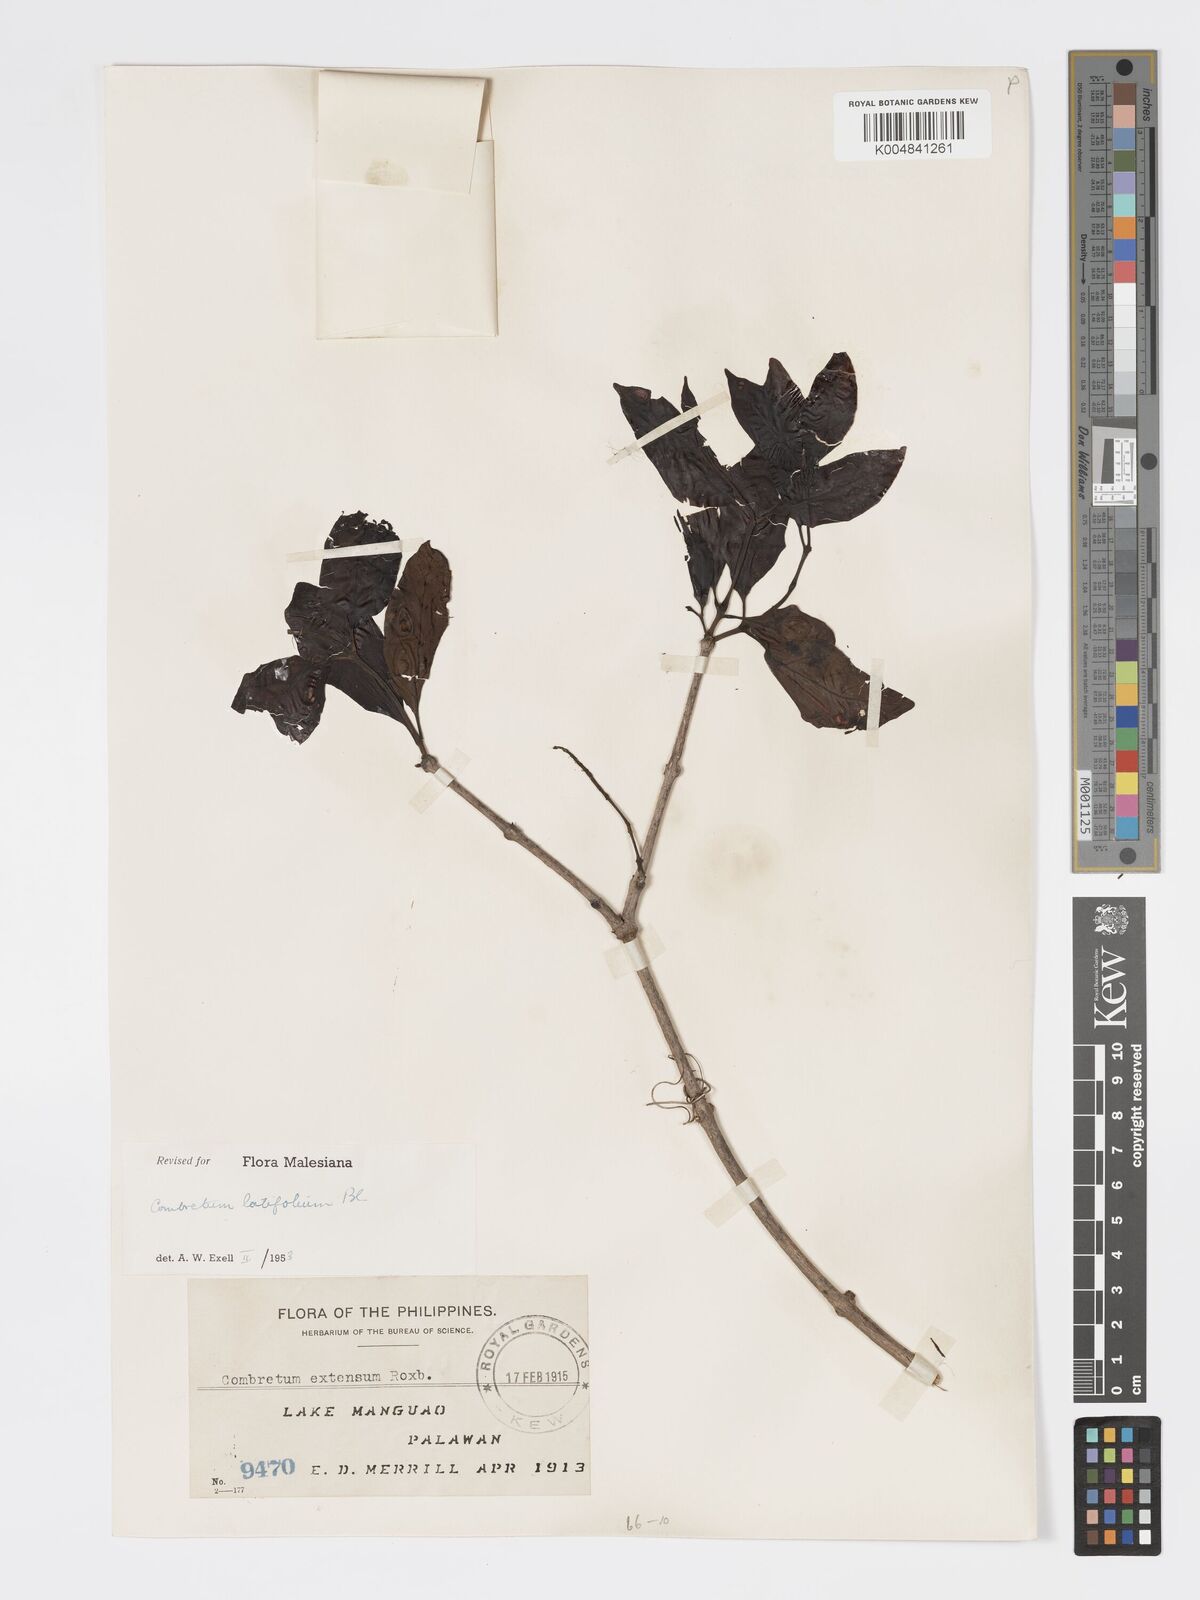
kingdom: Plantae
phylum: Tracheophyta
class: Magnoliopsida
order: Myrtales
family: Combretaceae
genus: Combretum
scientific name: Combretum
